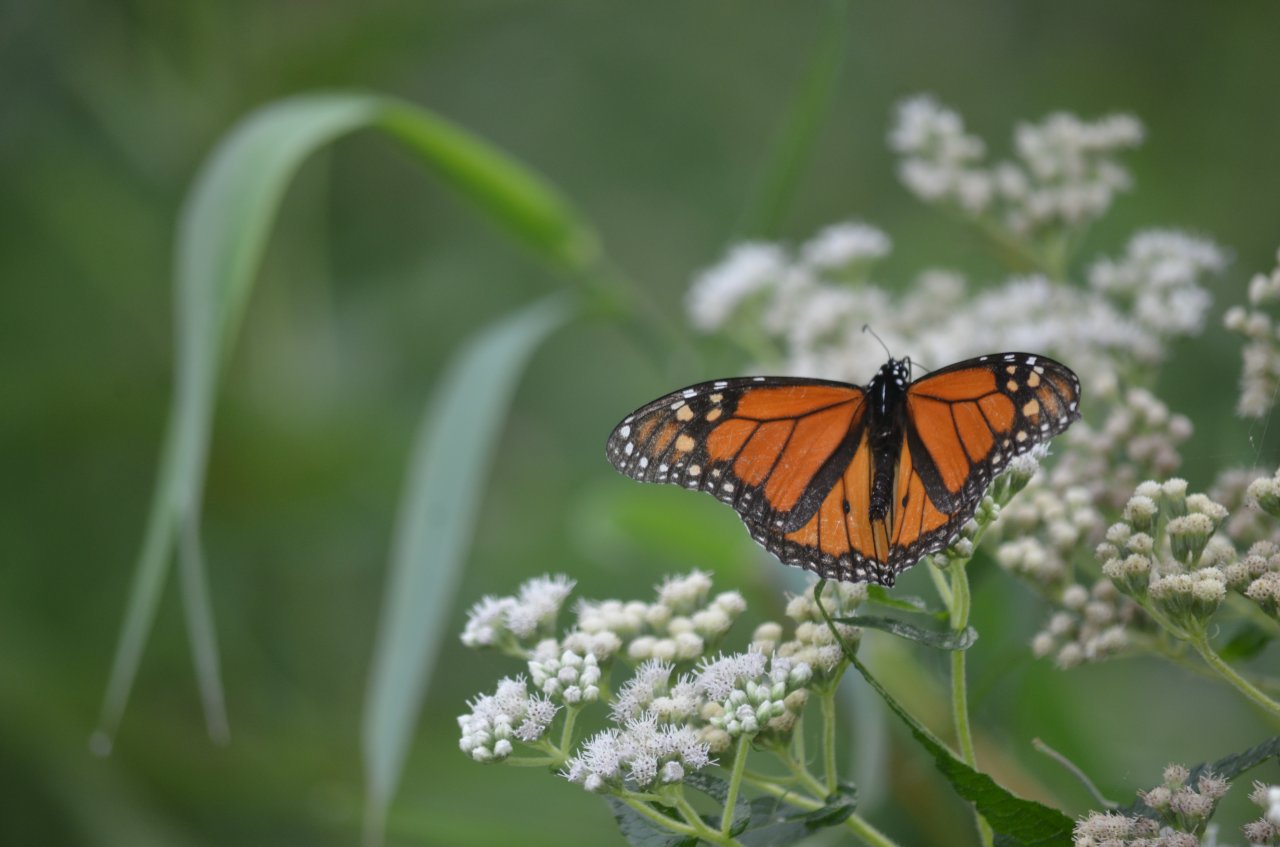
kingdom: Animalia
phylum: Arthropoda
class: Insecta
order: Lepidoptera
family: Nymphalidae
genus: Danaus
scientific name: Danaus plexippus
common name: Monarch
